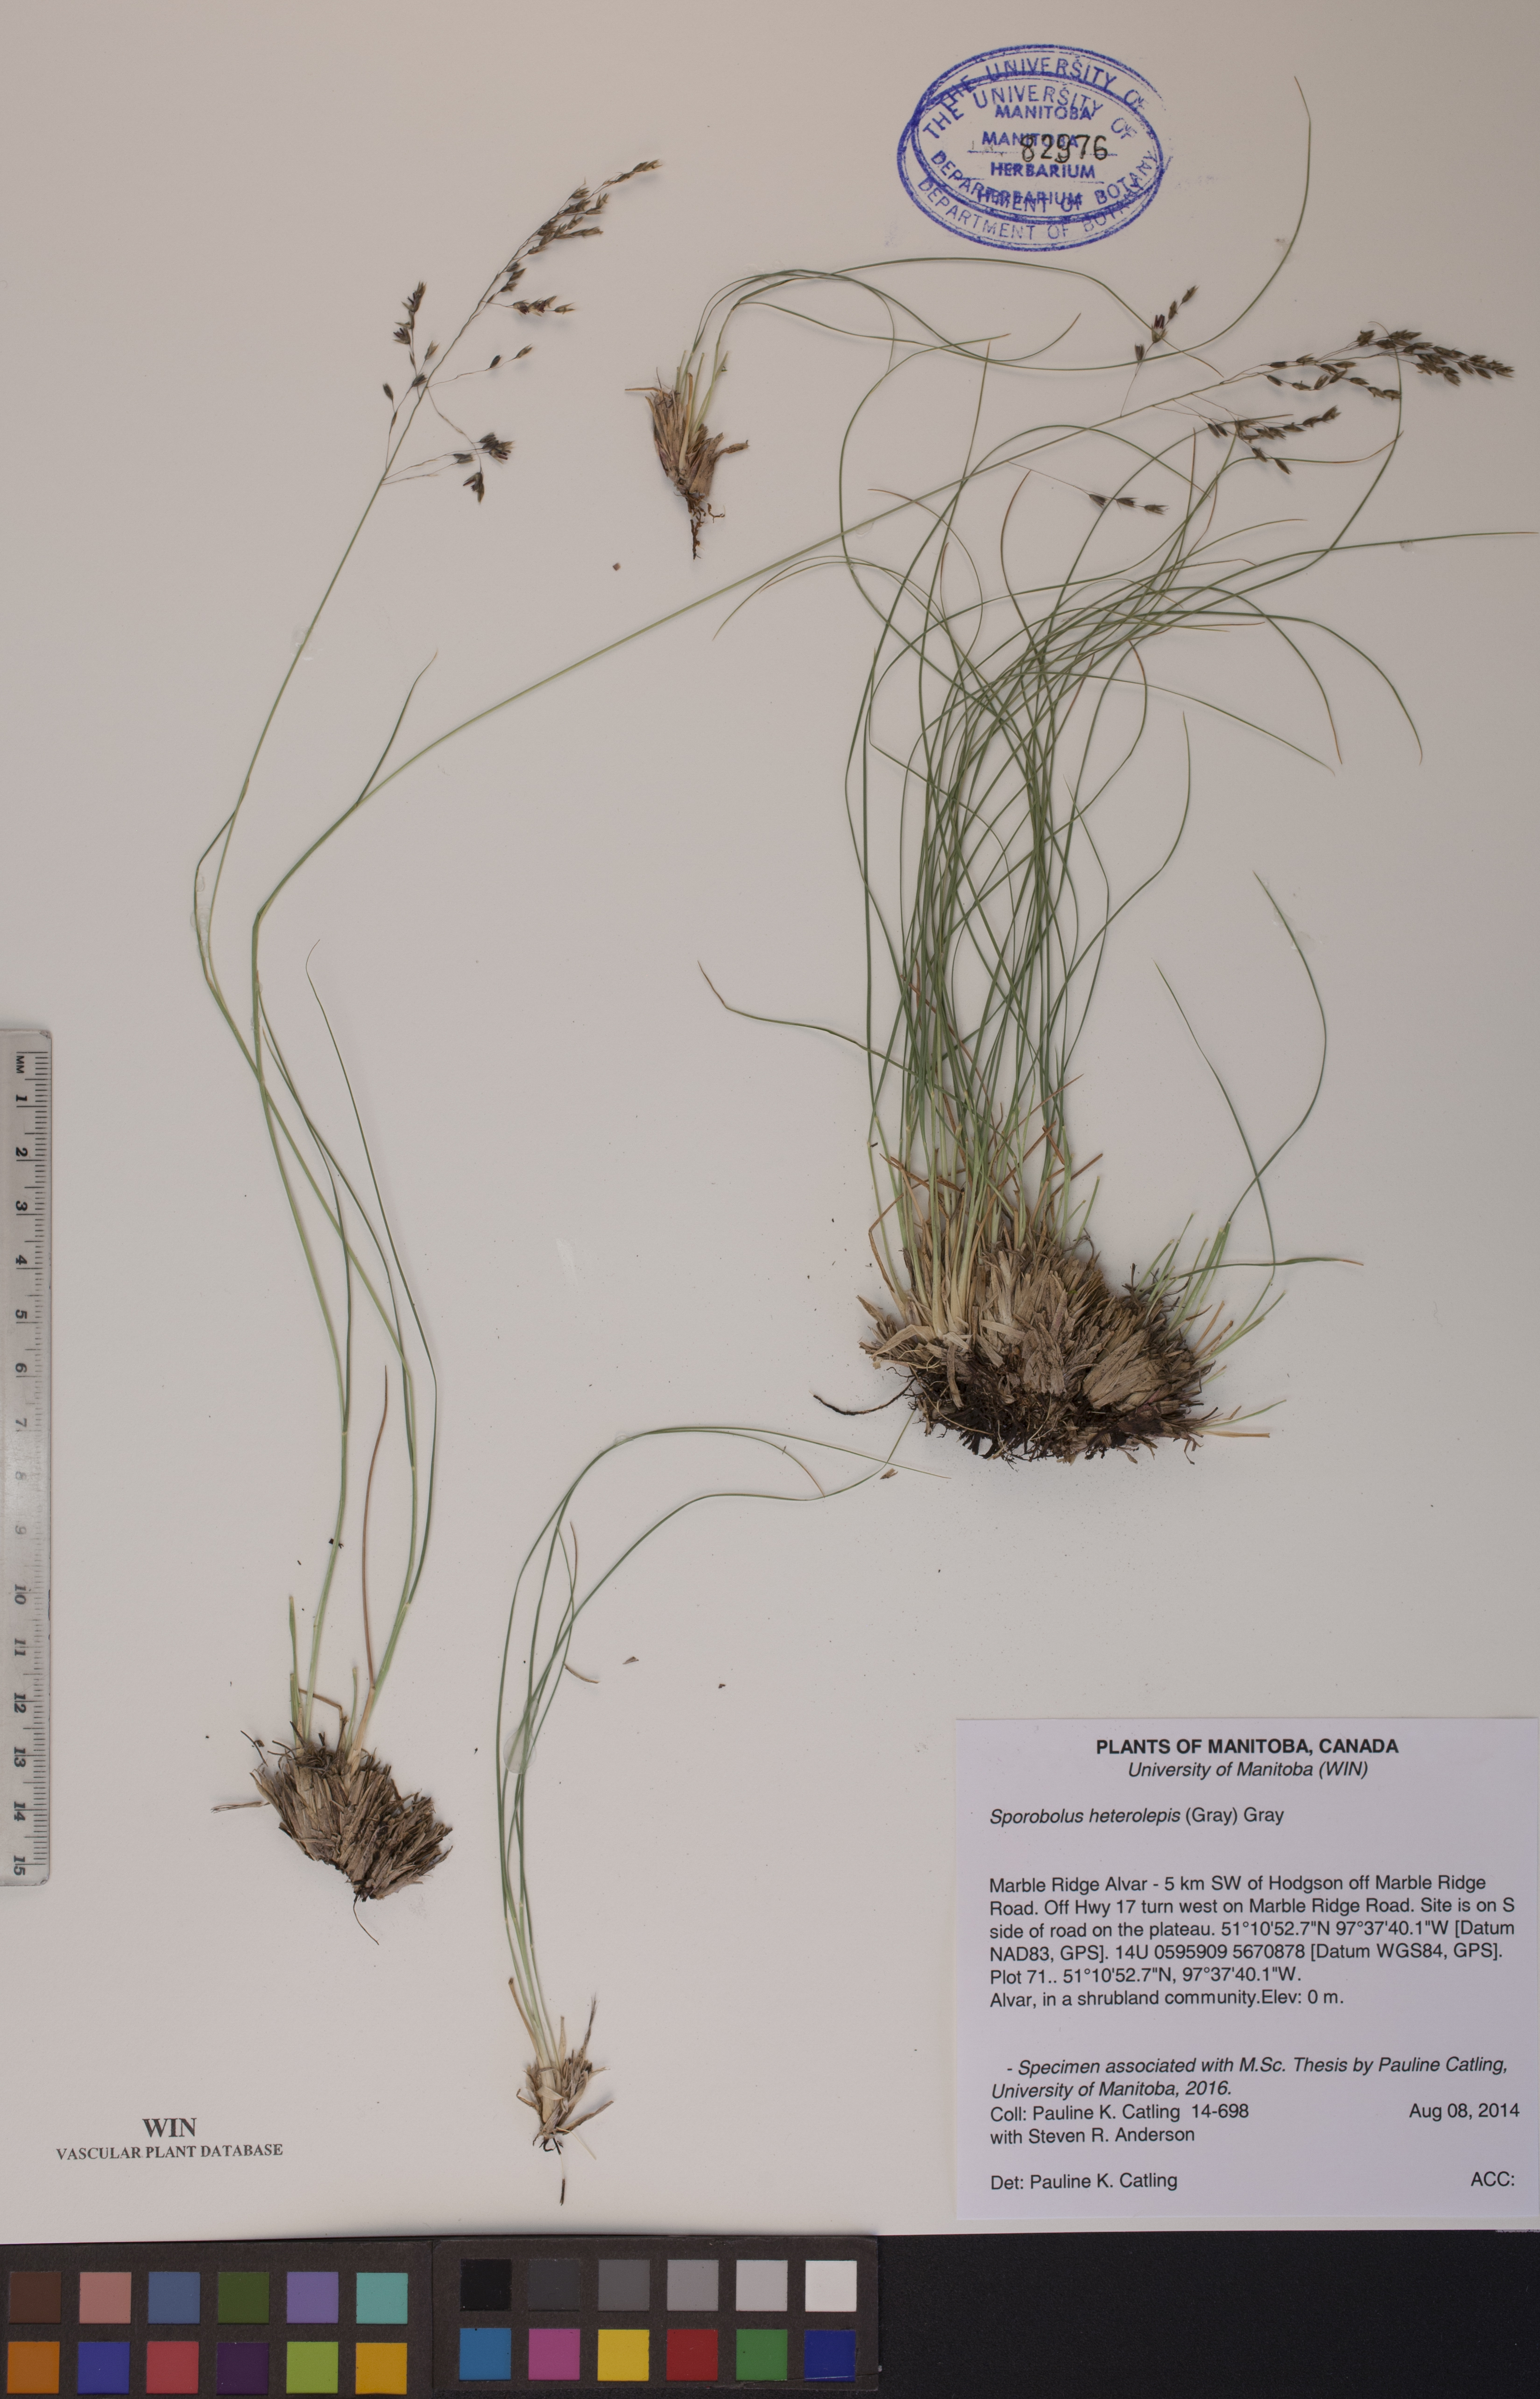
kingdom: Plantae
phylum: Tracheophyta
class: Liliopsida
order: Poales
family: Poaceae
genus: Sporobolus
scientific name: Sporobolus heterolepis
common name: Prairie dropseed
